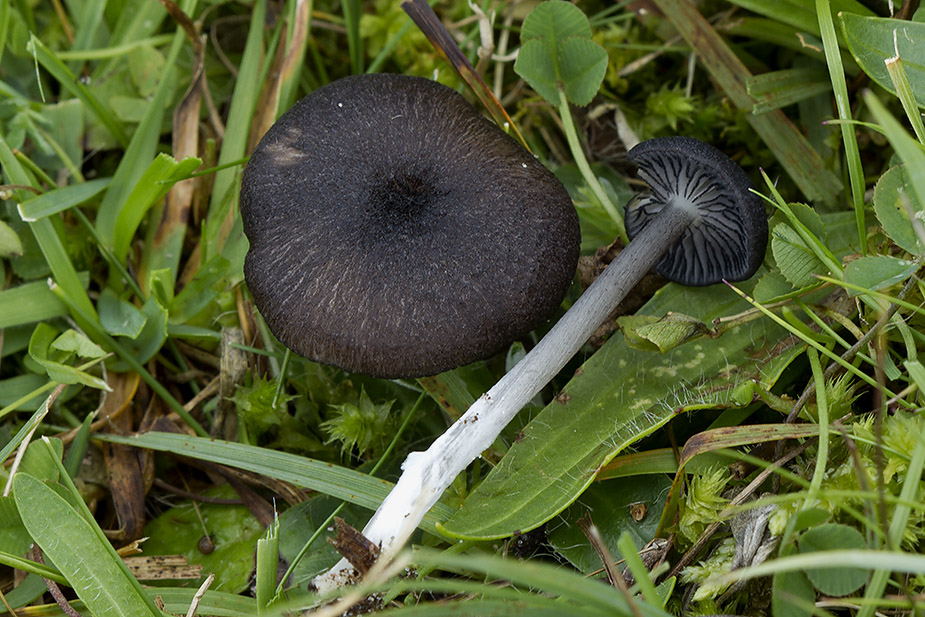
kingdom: Fungi
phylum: Basidiomycota
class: Agaricomycetes
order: Agaricales
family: Entolomataceae
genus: Entoloma
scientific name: Entoloma
